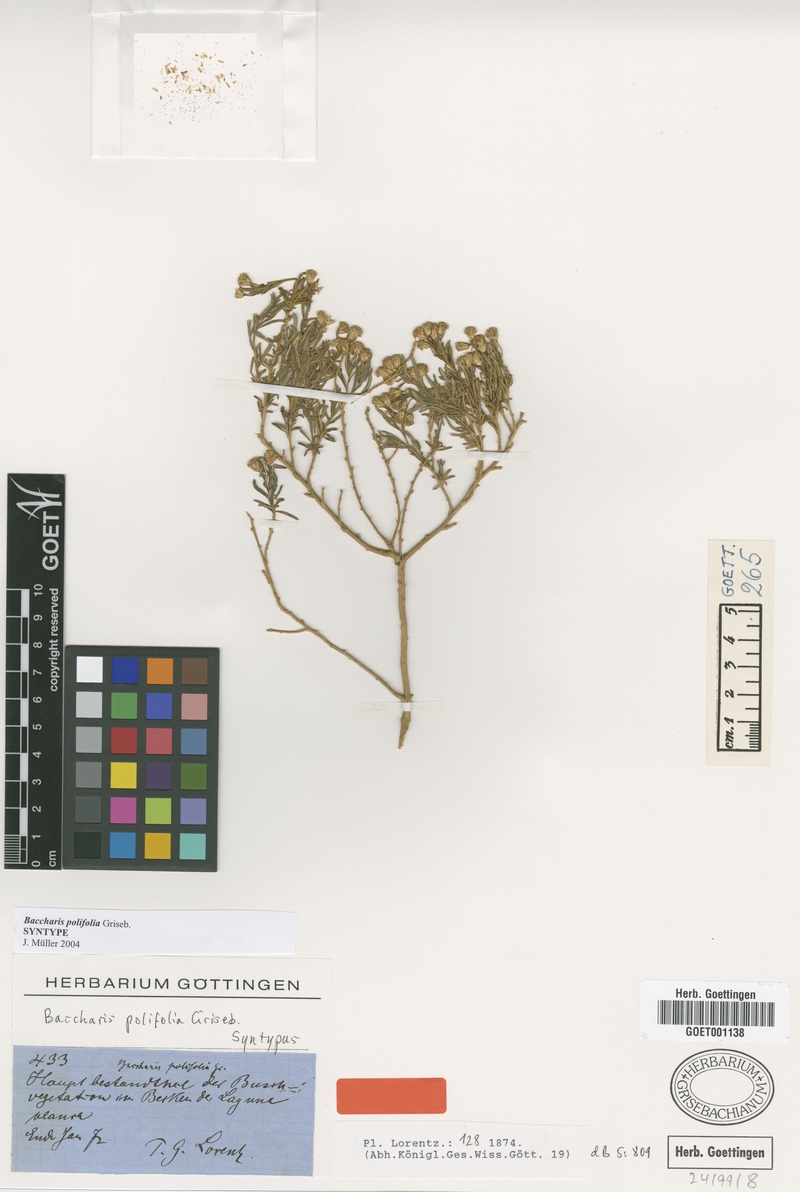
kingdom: Plantae
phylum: Tracheophyta
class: Magnoliopsida
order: Asterales
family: Asteraceae
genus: Baccharis
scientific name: Baccharis polifolia
